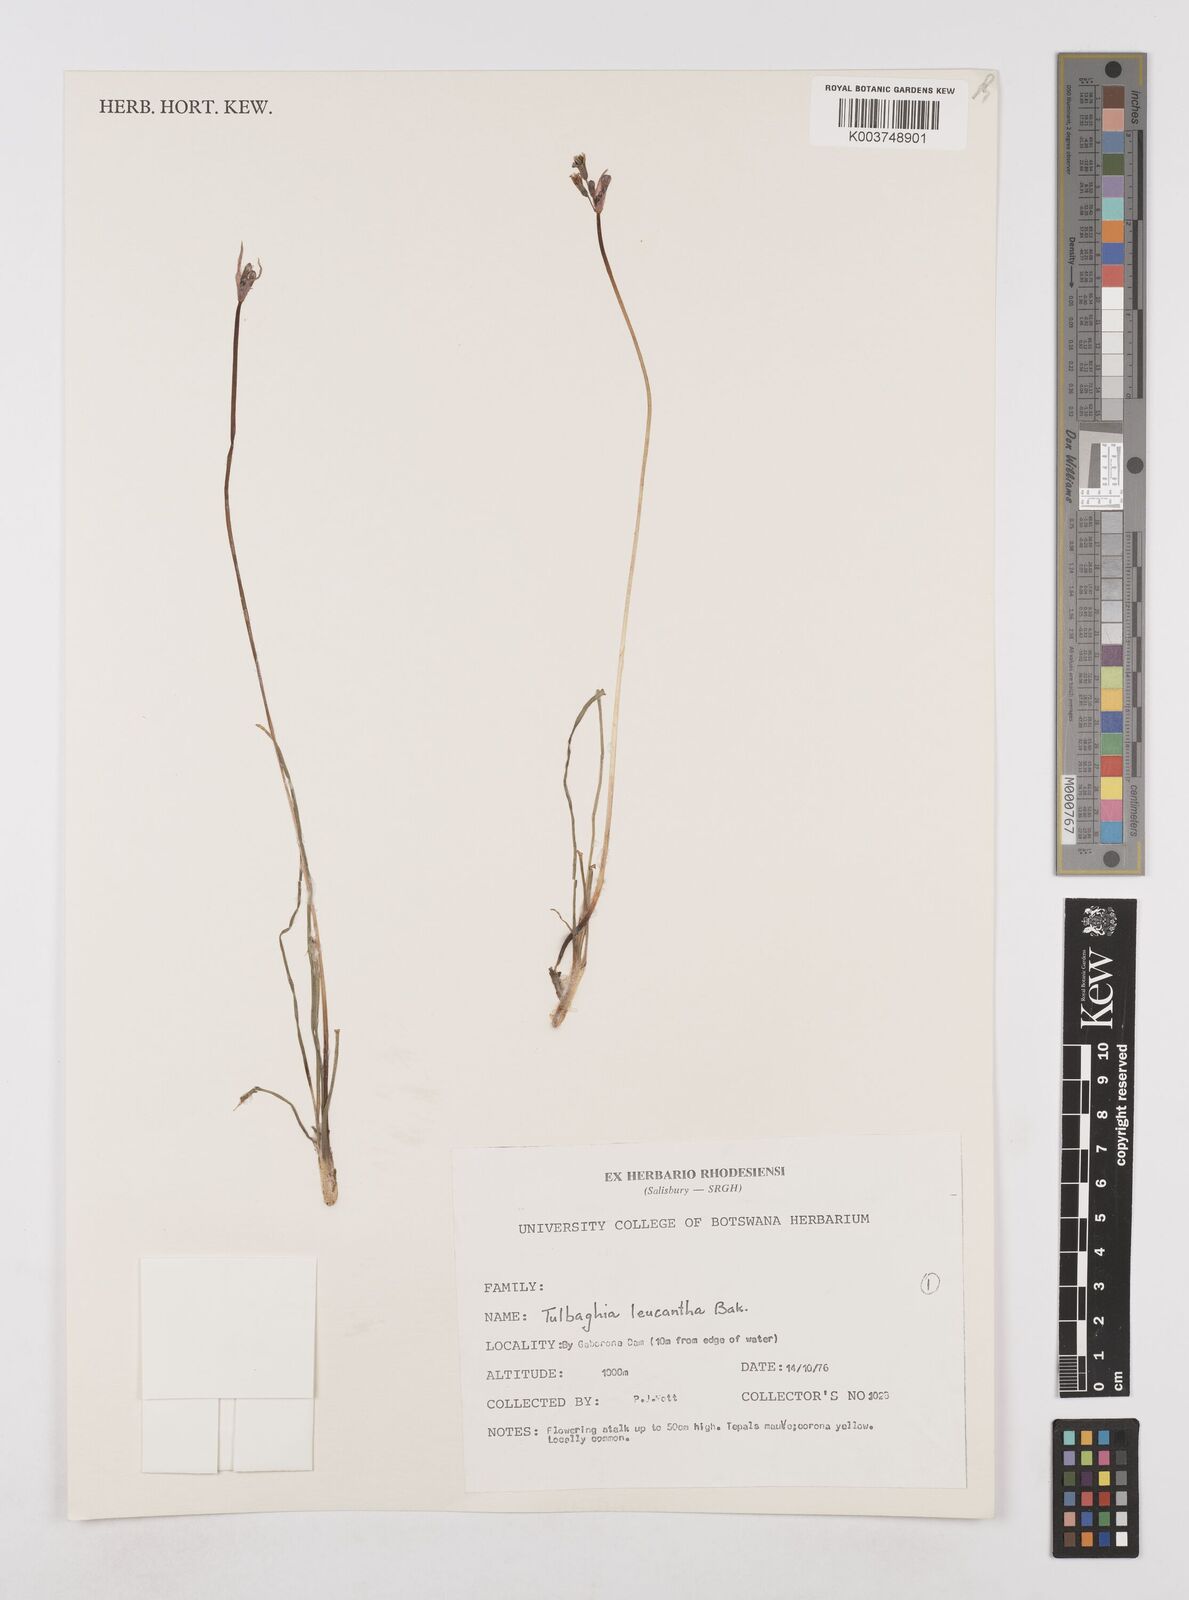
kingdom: Plantae
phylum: Tracheophyta
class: Liliopsida
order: Asparagales
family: Amaryllidaceae
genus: Tulbaghia
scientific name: Tulbaghia leucantha
